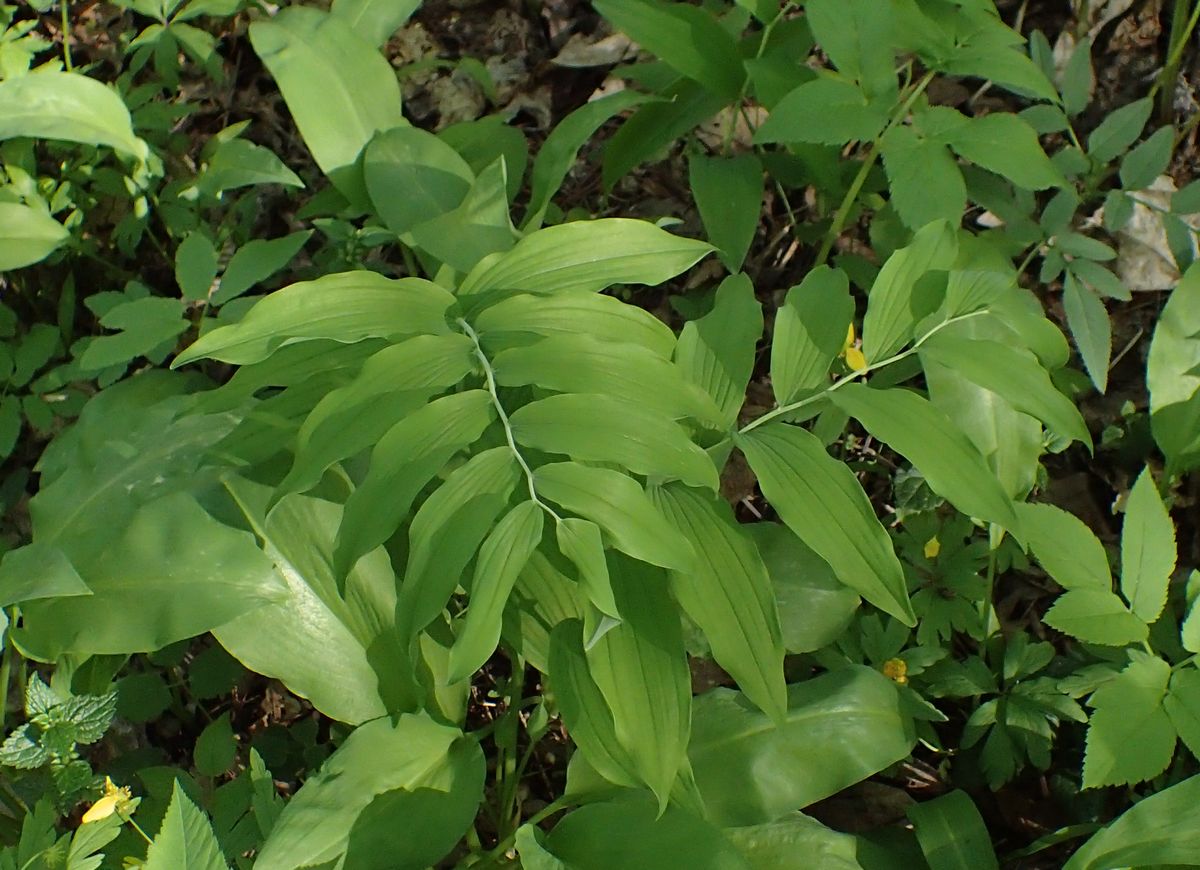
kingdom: Plantae
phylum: Tracheophyta
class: Liliopsida
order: Asparagales
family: Asparagaceae
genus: Polygonatum
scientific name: Polygonatum
